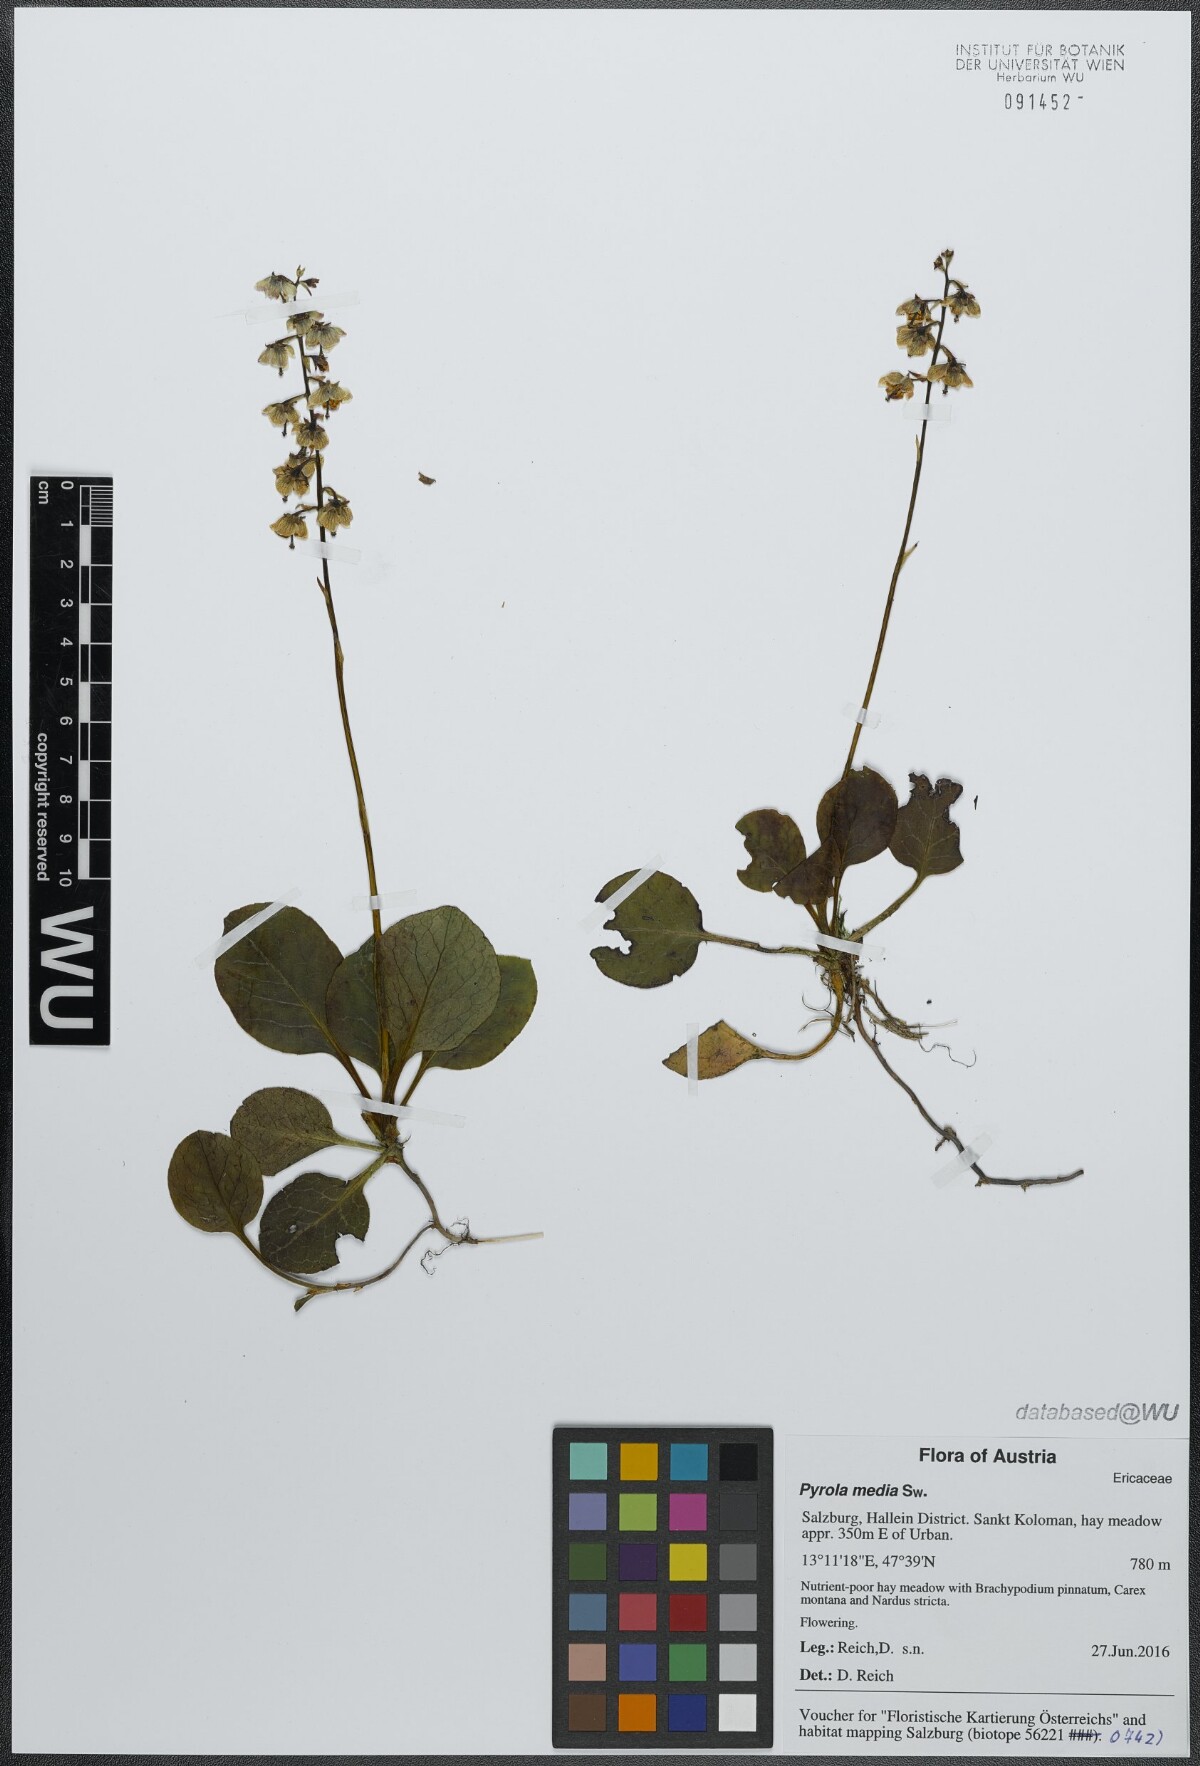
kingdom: Plantae
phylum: Tracheophyta
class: Magnoliopsida
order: Ericales
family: Ericaceae
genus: Pyrola
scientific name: Pyrola media
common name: Intermediate wintergreen
